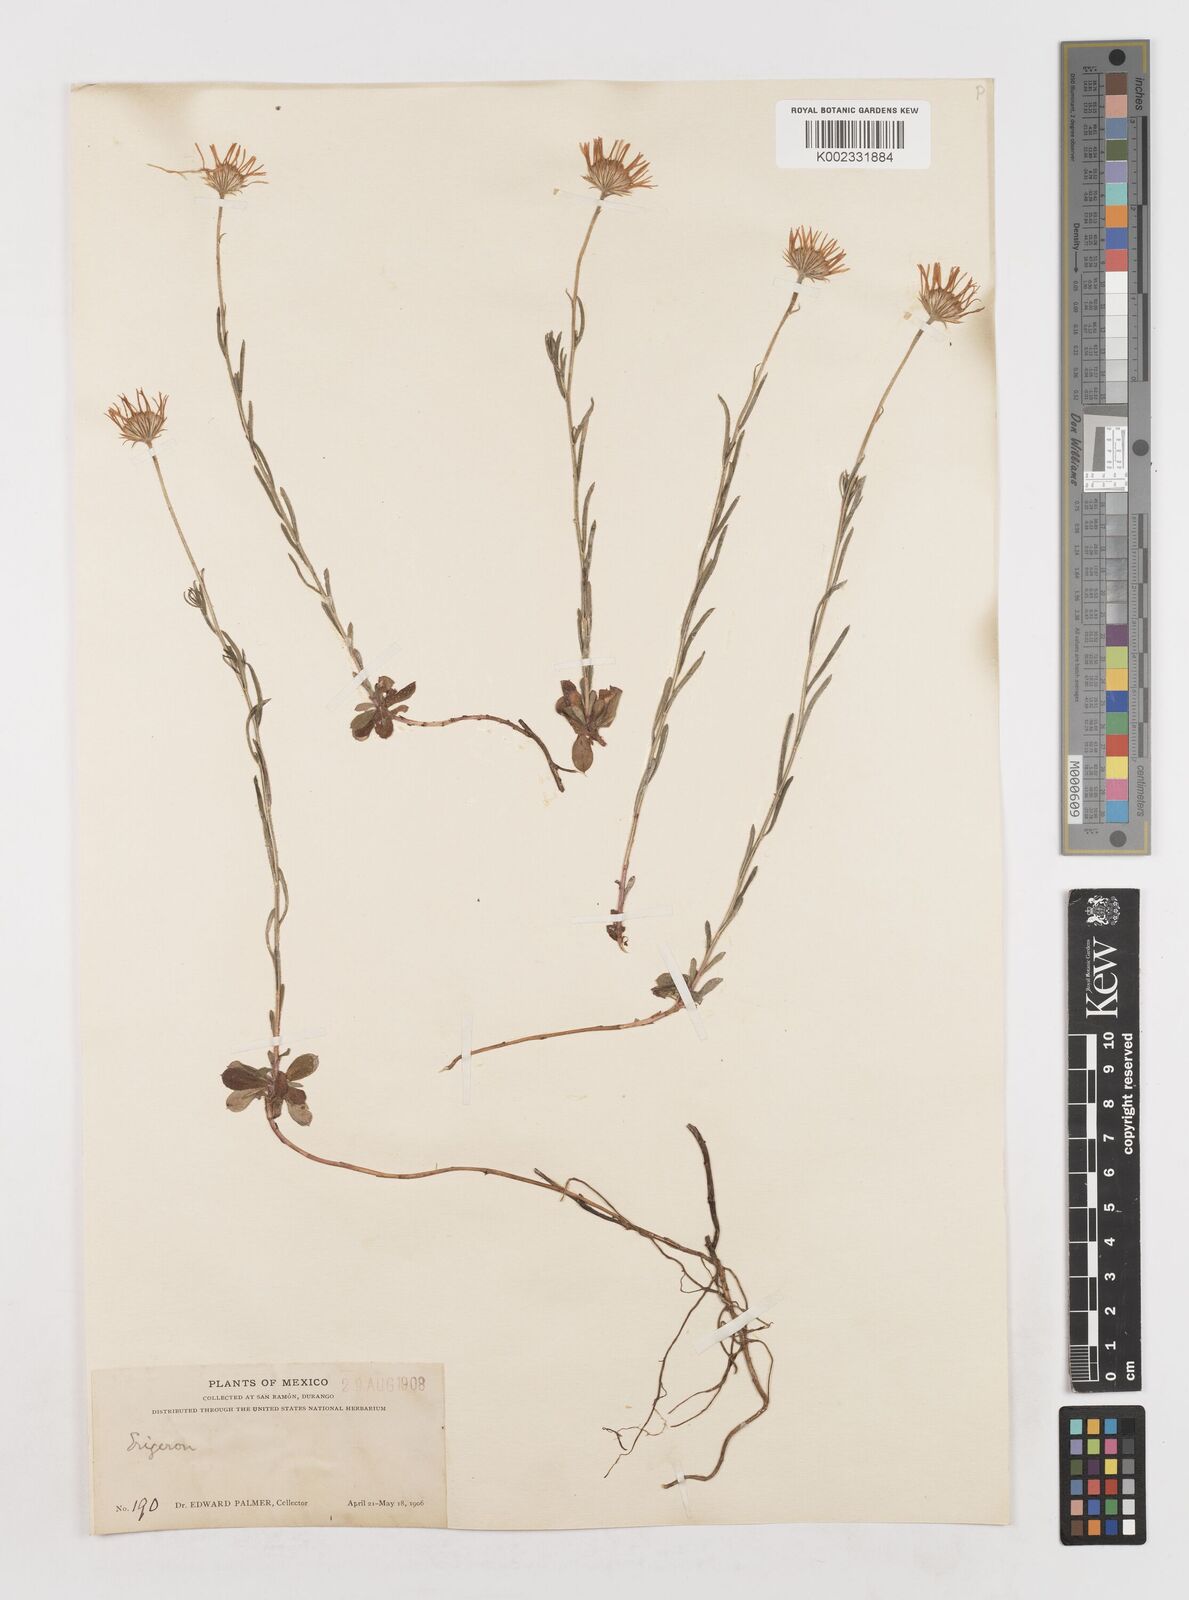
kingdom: Plantae
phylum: Tracheophyta
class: Magnoliopsida
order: Asterales
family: Asteraceae
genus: Erigeron
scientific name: Erigeron
